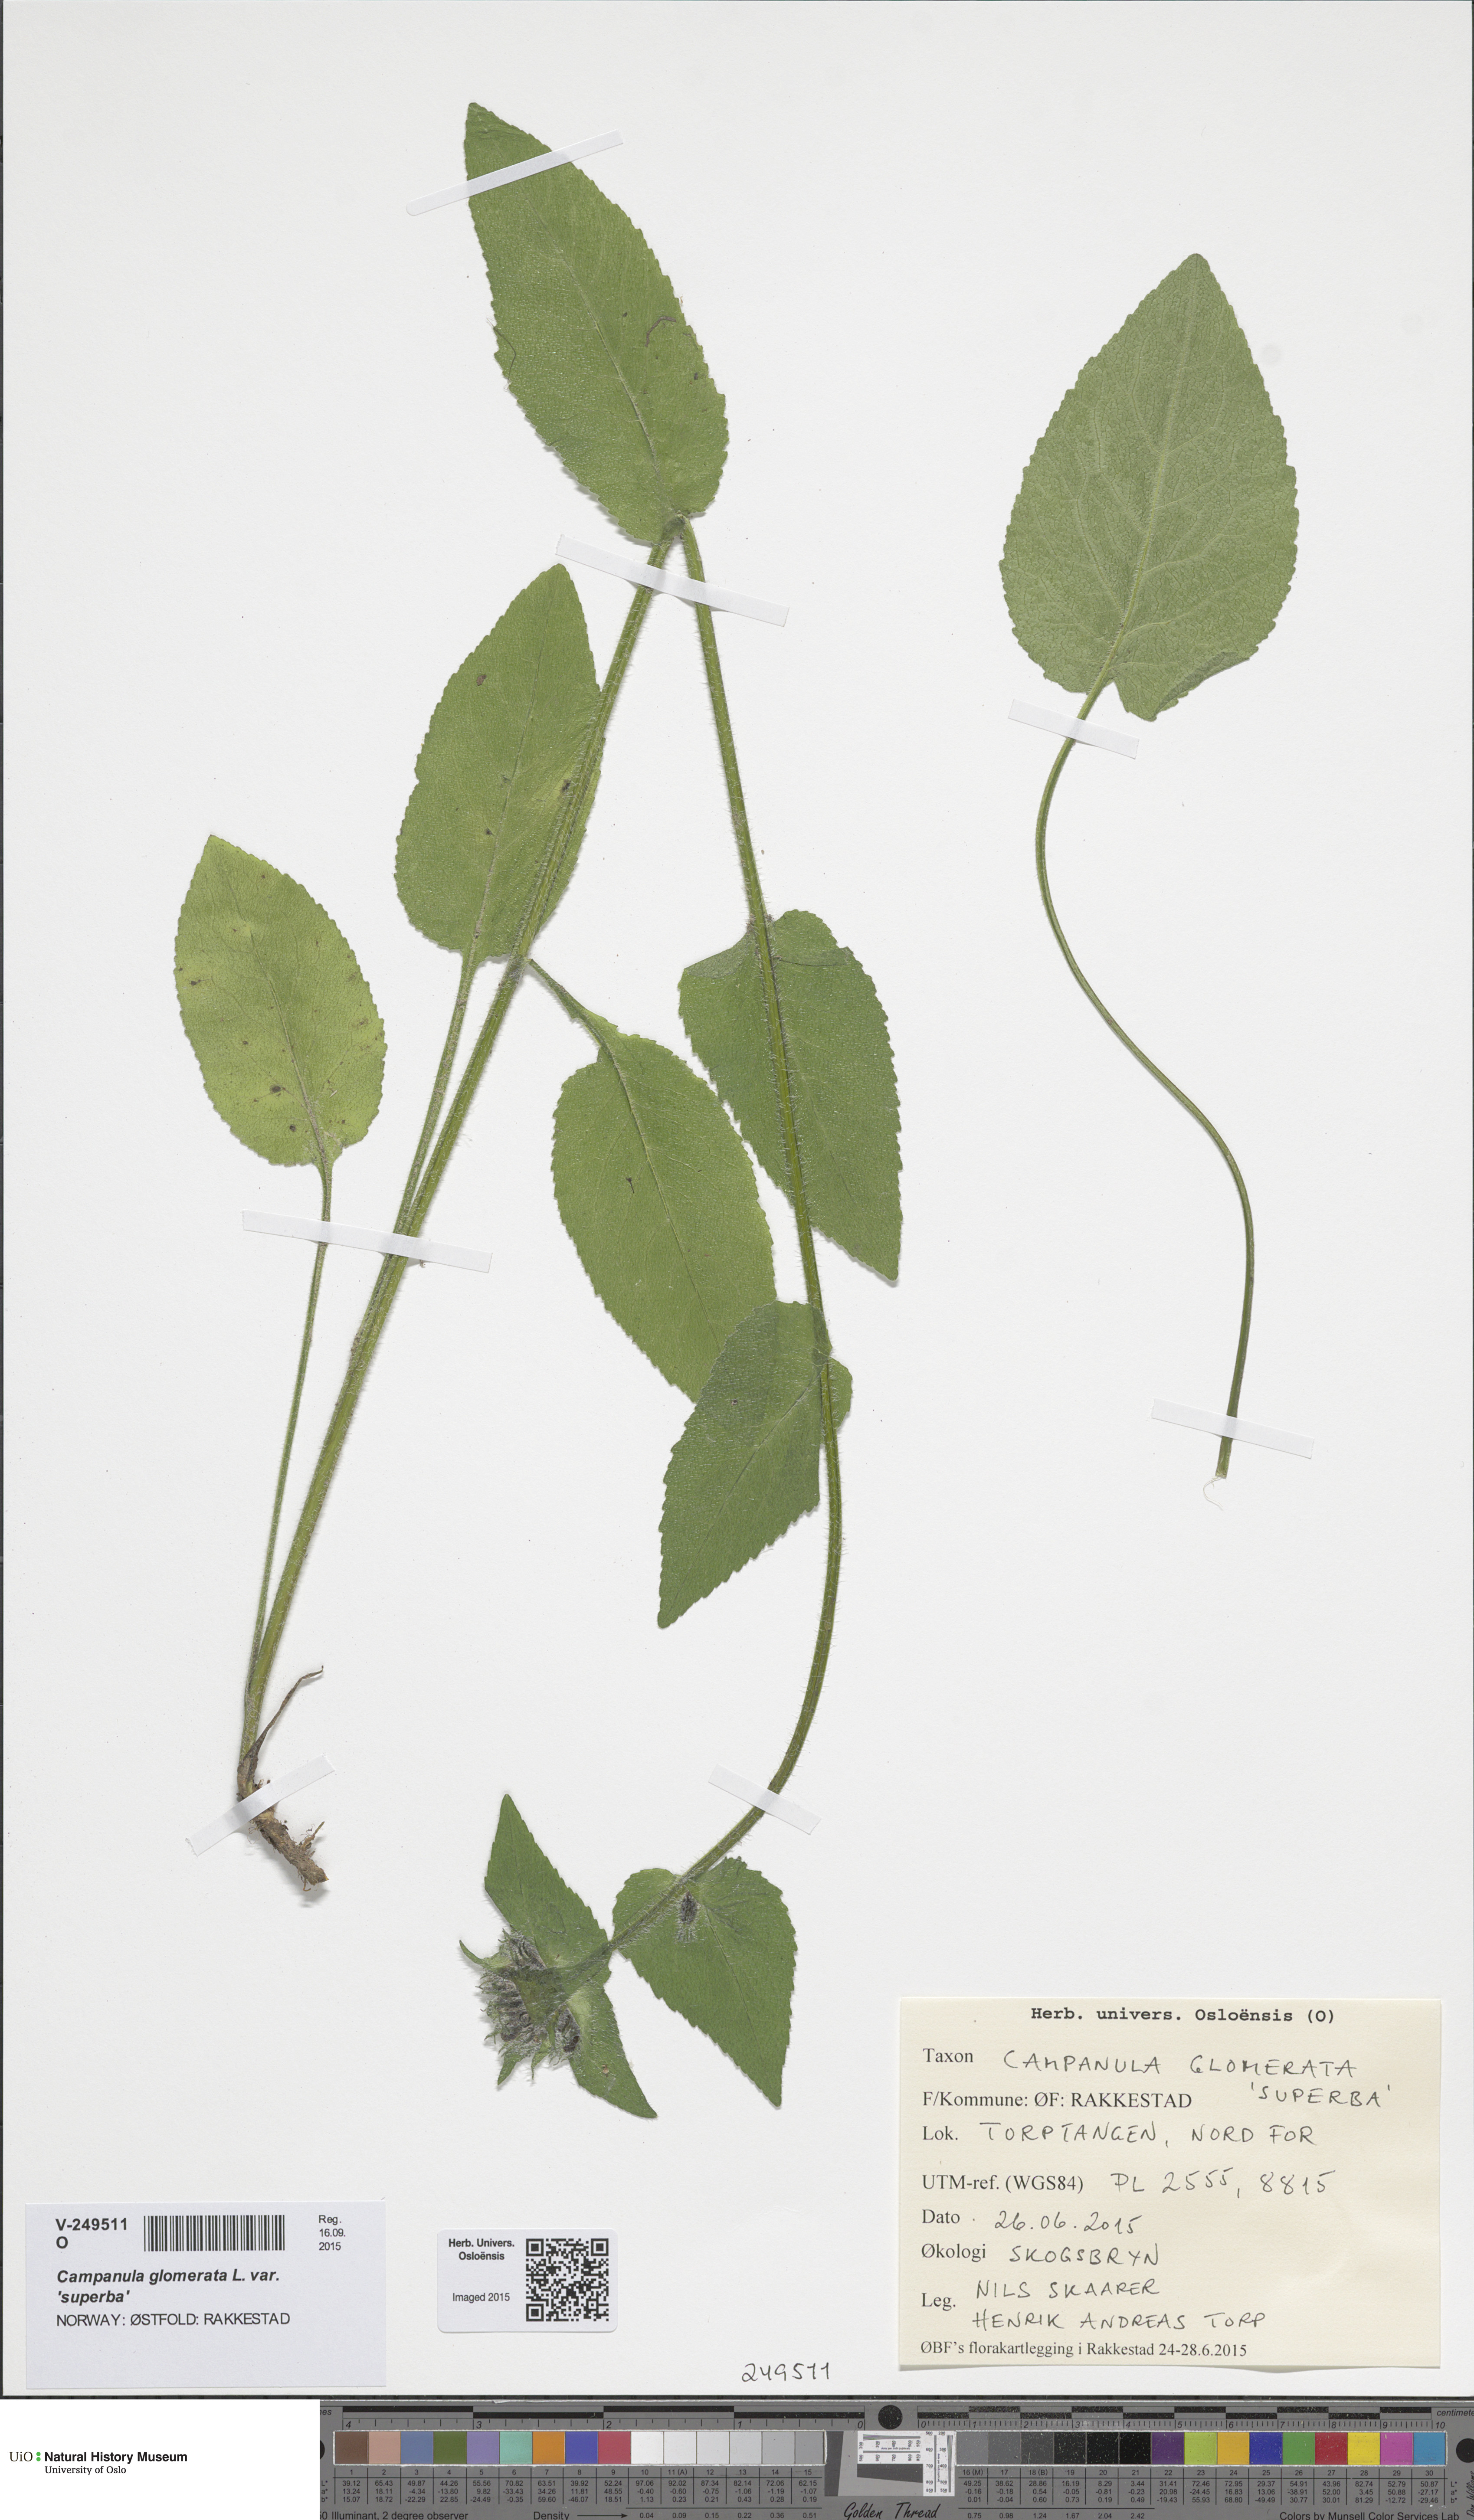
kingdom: Plantae
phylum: Tracheophyta
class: Magnoliopsida
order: Asterales
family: Campanulaceae
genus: Campanula
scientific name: Campanula glomerata
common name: Clustered bellflower
